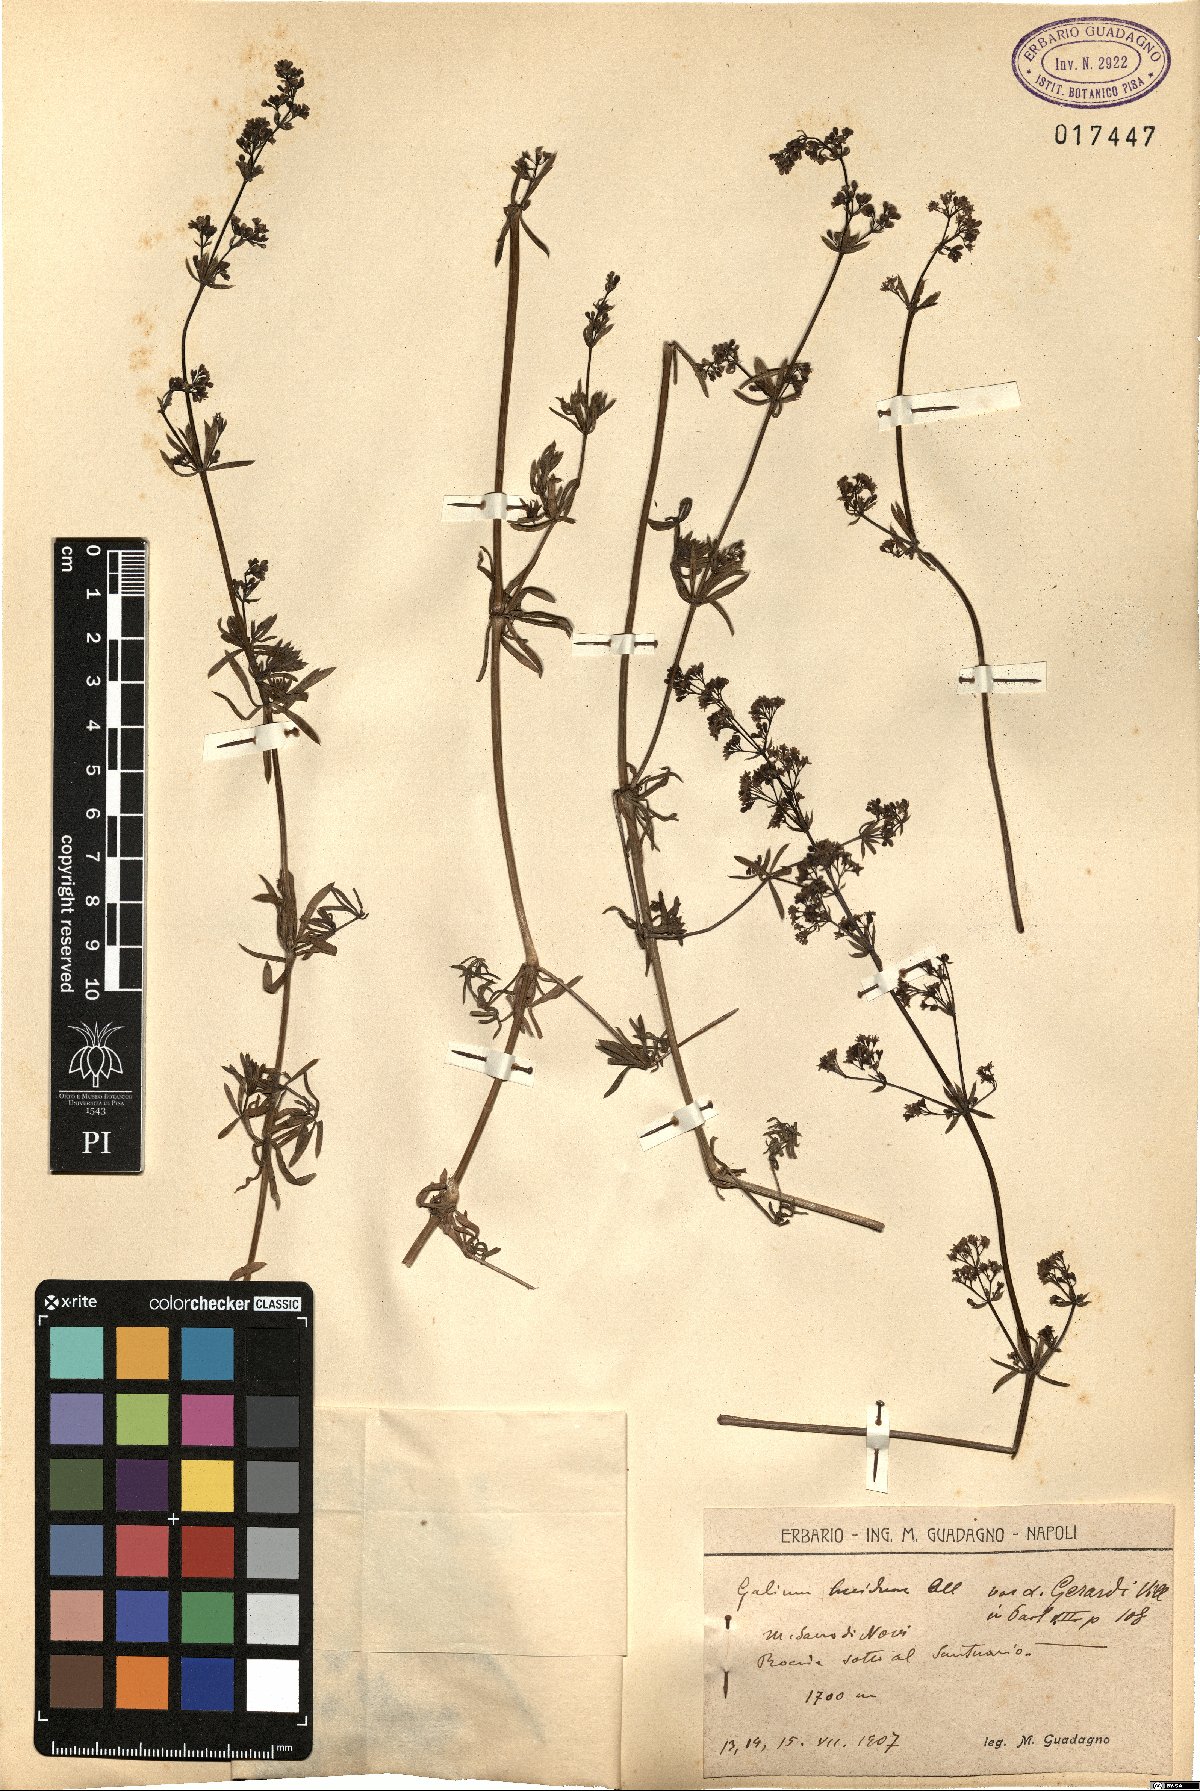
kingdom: Plantae
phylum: Tracheophyta
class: Magnoliopsida
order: Gentianales
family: Rubiaceae
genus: Galium
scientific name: Galium lucidum
